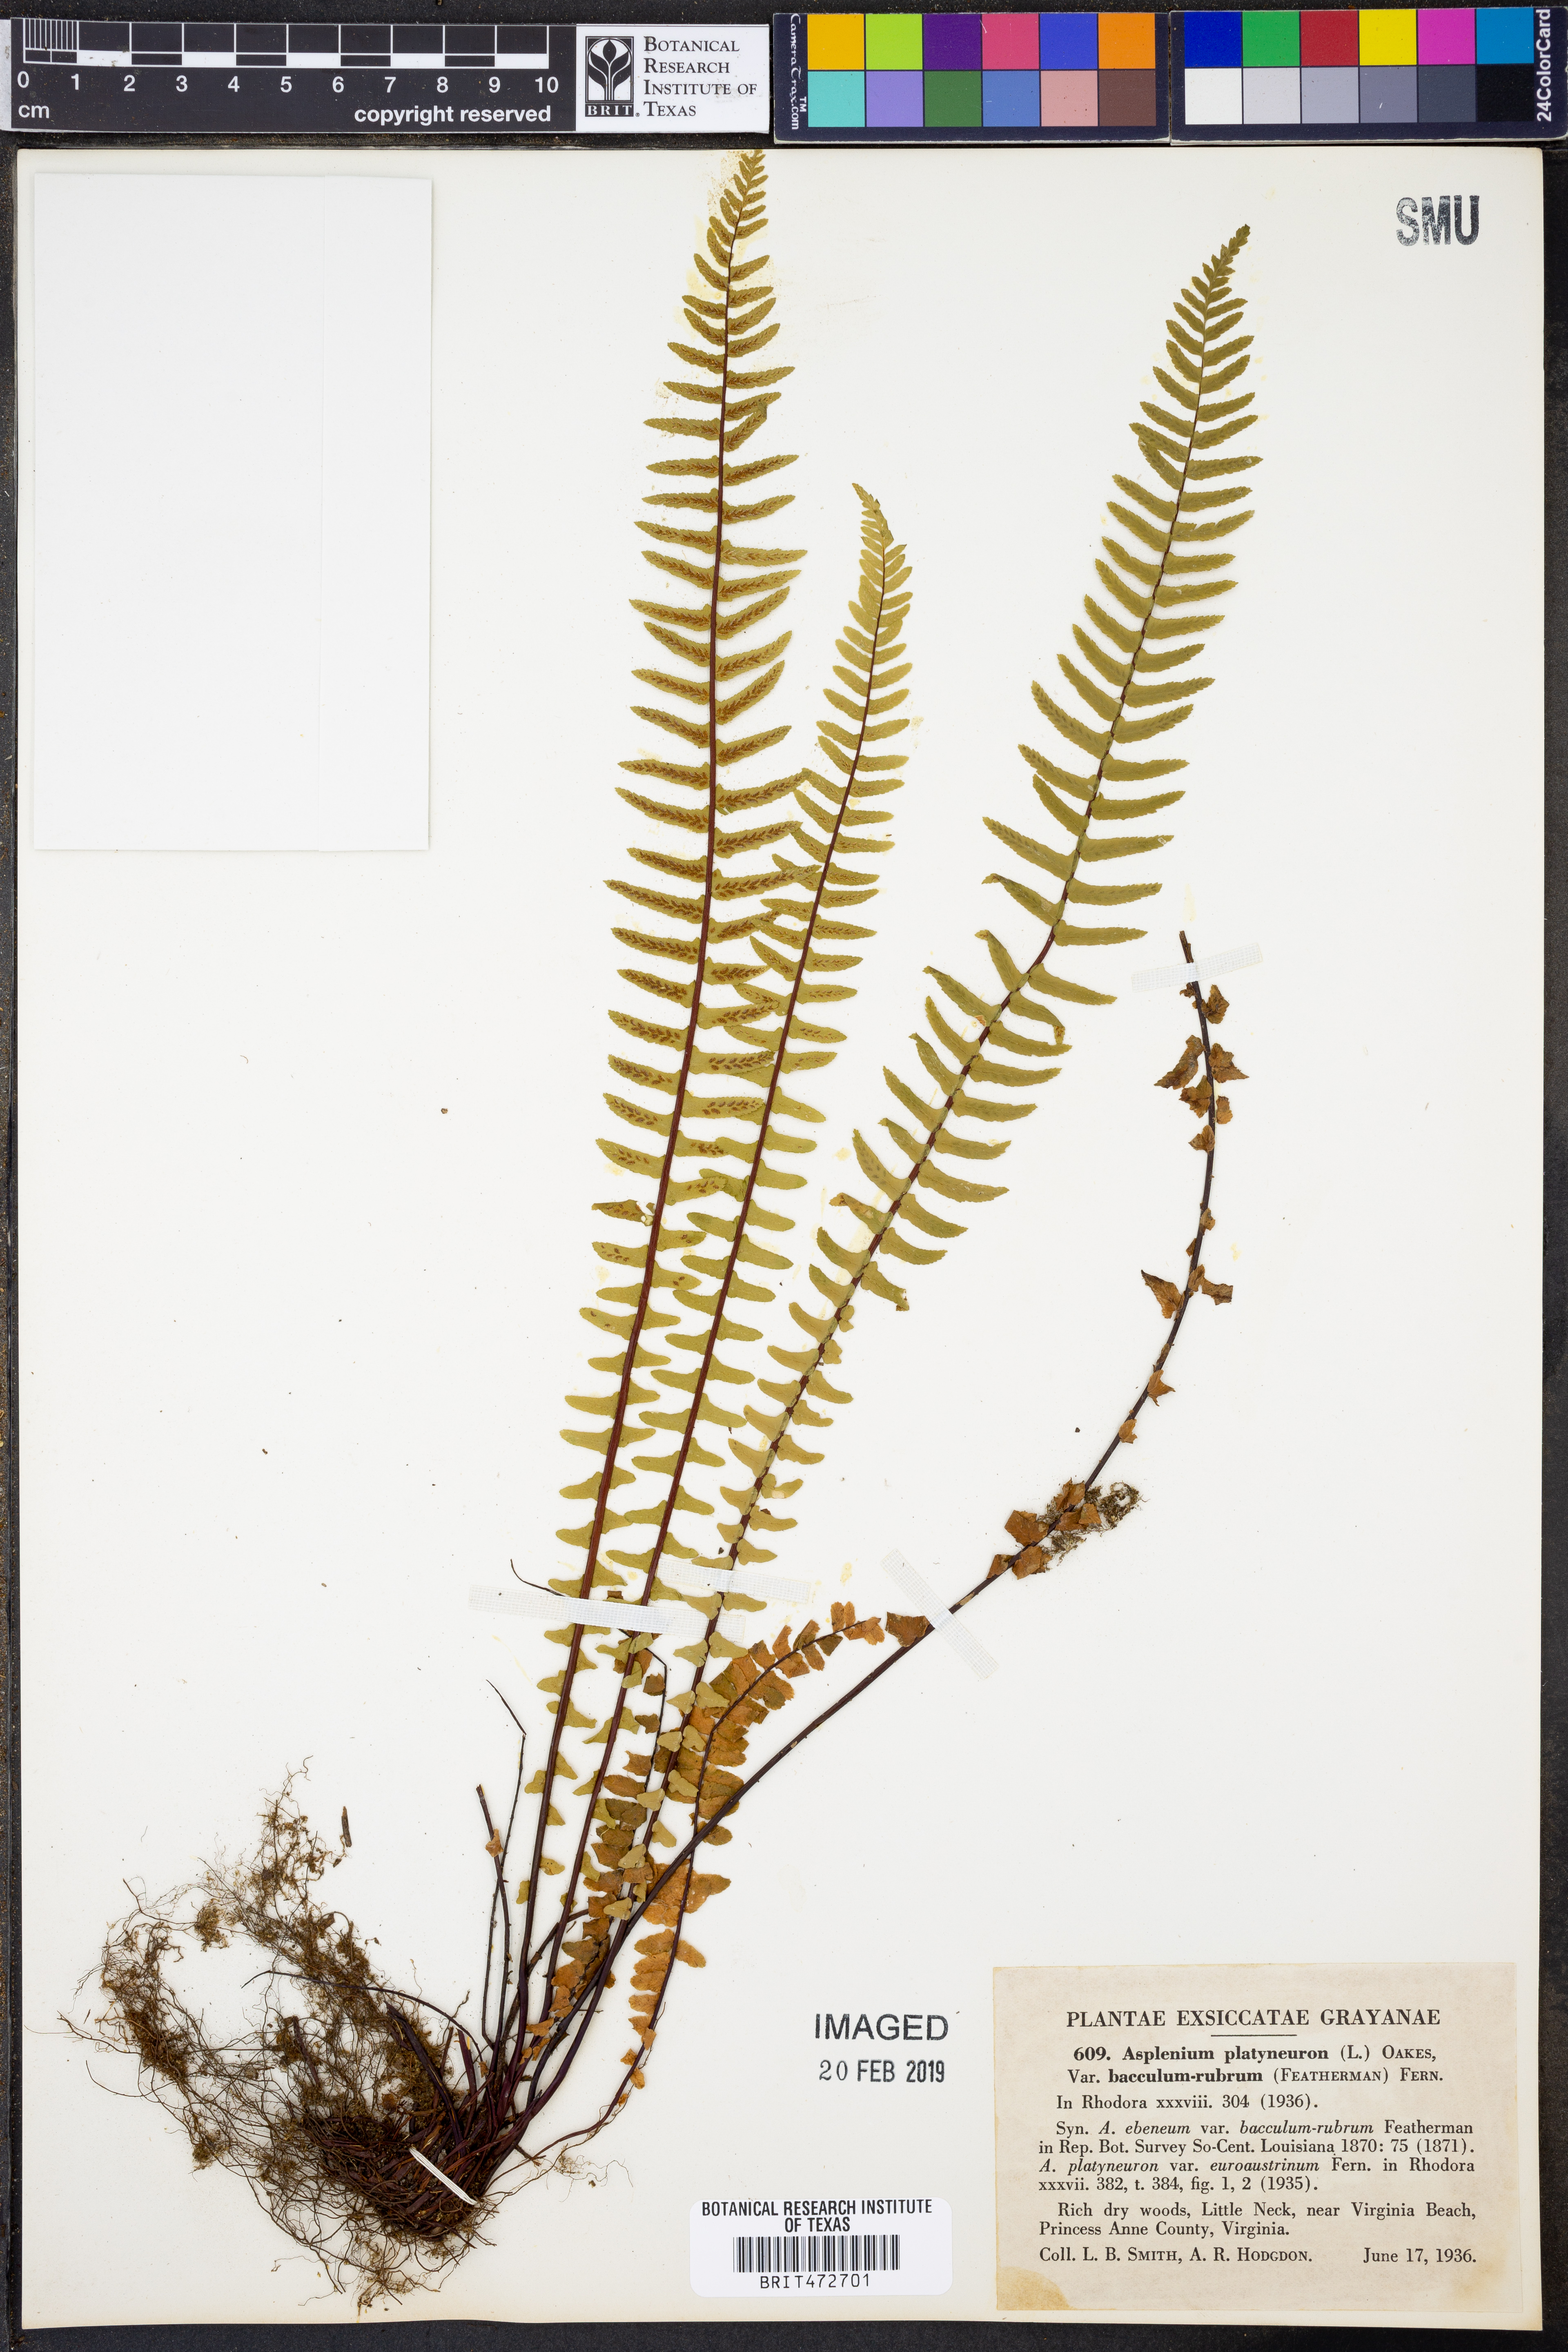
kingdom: Plantae
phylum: Tracheophyta
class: Polypodiopsida
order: Polypodiales
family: Aspleniaceae
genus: Asplenium
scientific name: Asplenium platyneuron
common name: Ebony spleenwort
